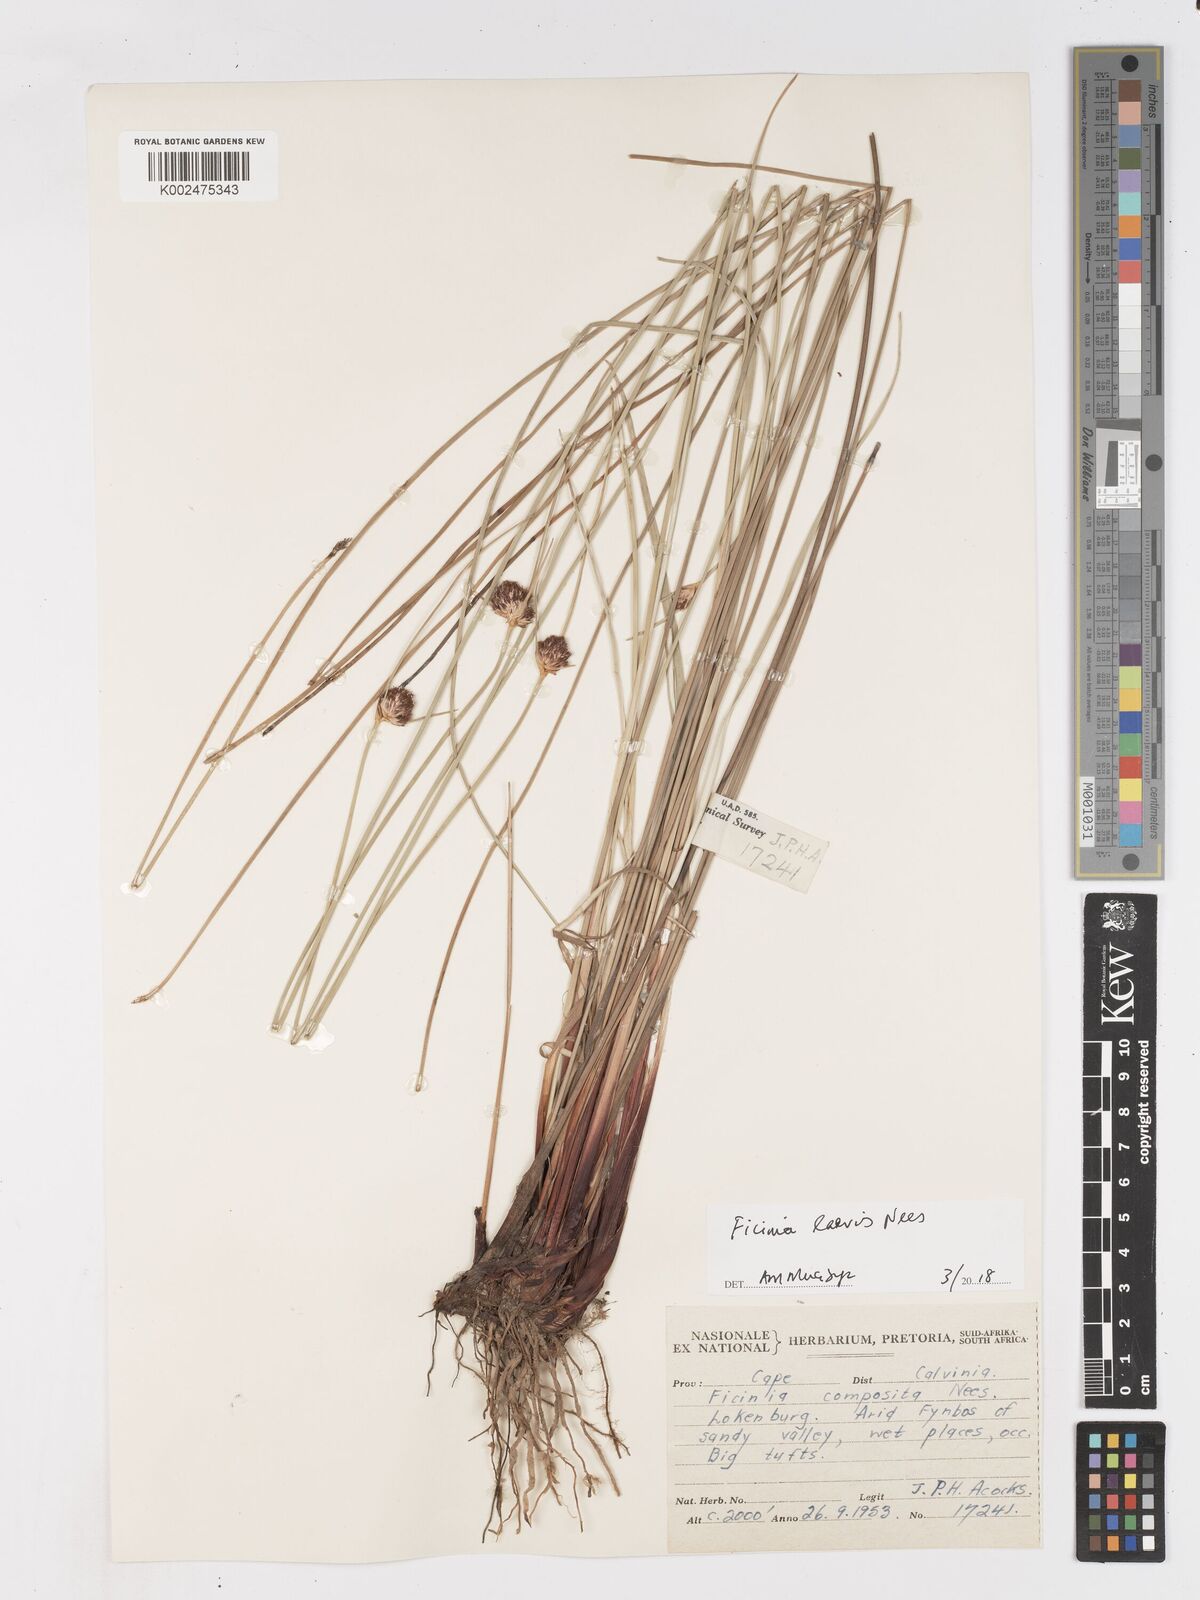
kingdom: Plantae
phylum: Tracheophyta
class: Liliopsida
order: Poales
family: Cyperaceae
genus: Ficinia
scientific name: Ficinia laevis
